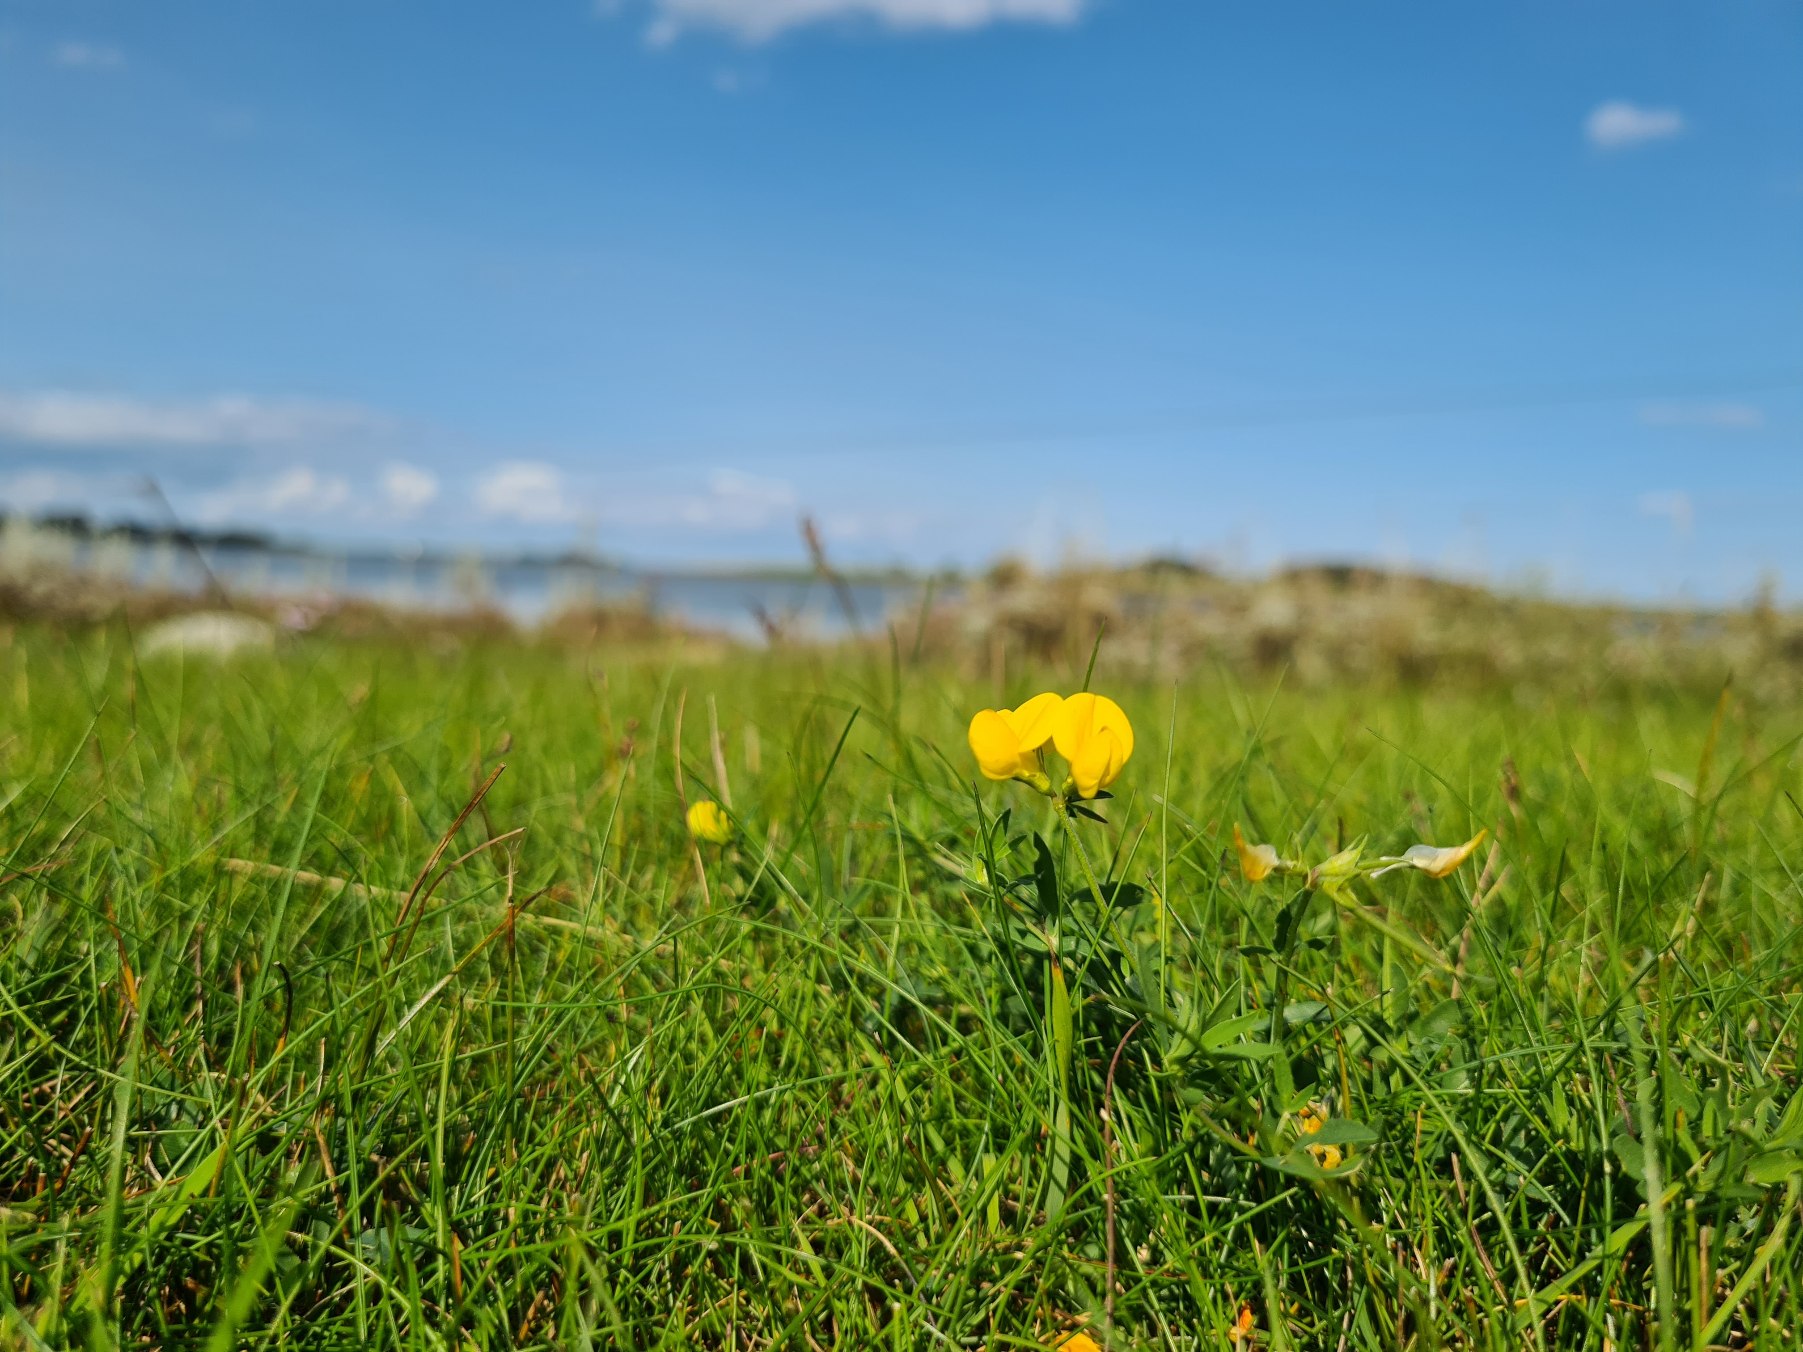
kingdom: Plantae
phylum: Tracheophyta
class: Magnoliopsida
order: Fabales
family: Fabaceae
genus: Lotus
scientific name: Lotus tenuis
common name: Smalbladet kællingetand
